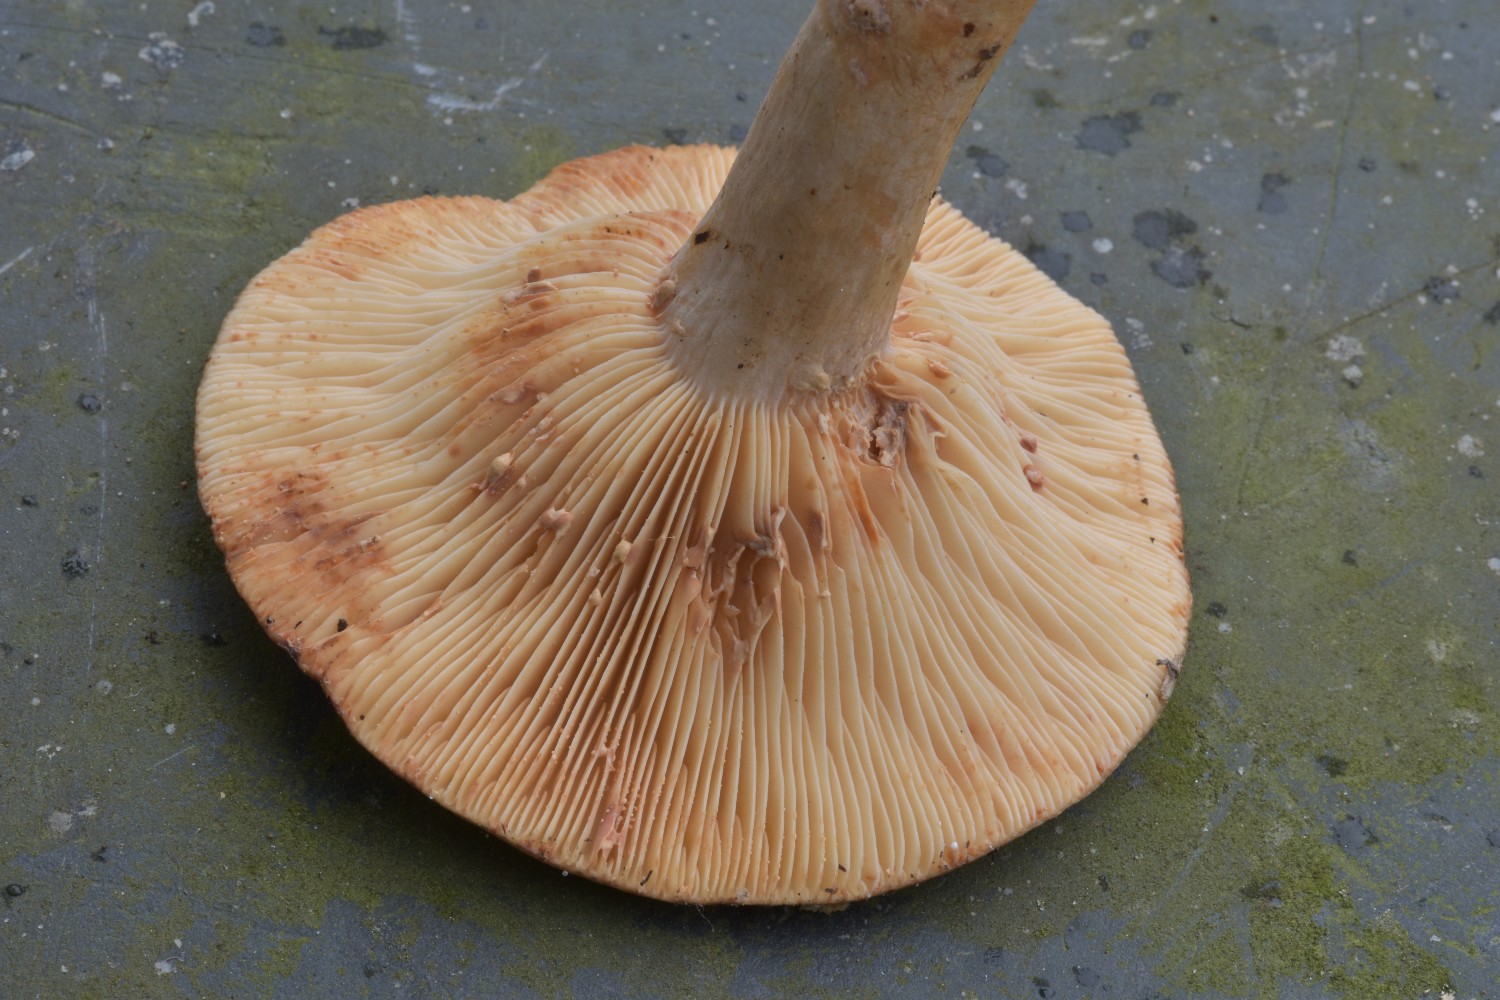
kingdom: Fungi
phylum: Basidiomycota
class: Agaricomycetes
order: Russulales
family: Russulaceae
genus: Lactarius
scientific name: Lactarius pterosporus
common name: vingesporet mælkehat
